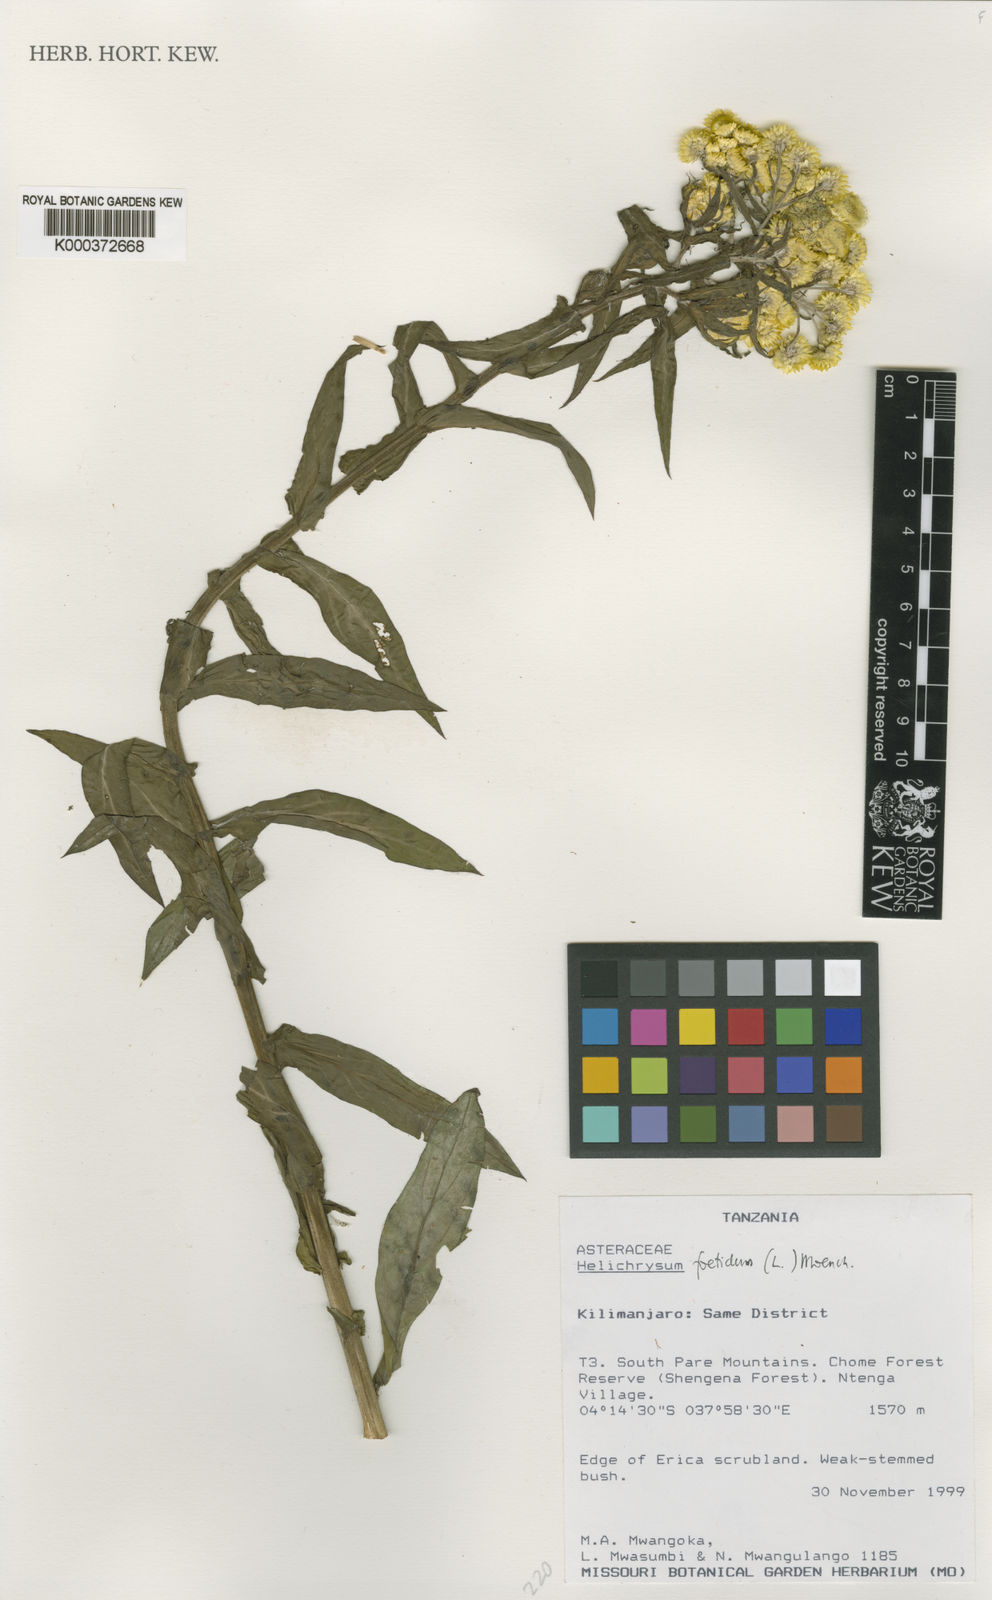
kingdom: Plantae
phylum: Tracheophyta
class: Magnoliopsida
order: Asterales
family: Asteraceae
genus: Helichrysum
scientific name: Helichrysum foetidum
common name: Stinking everlasting
